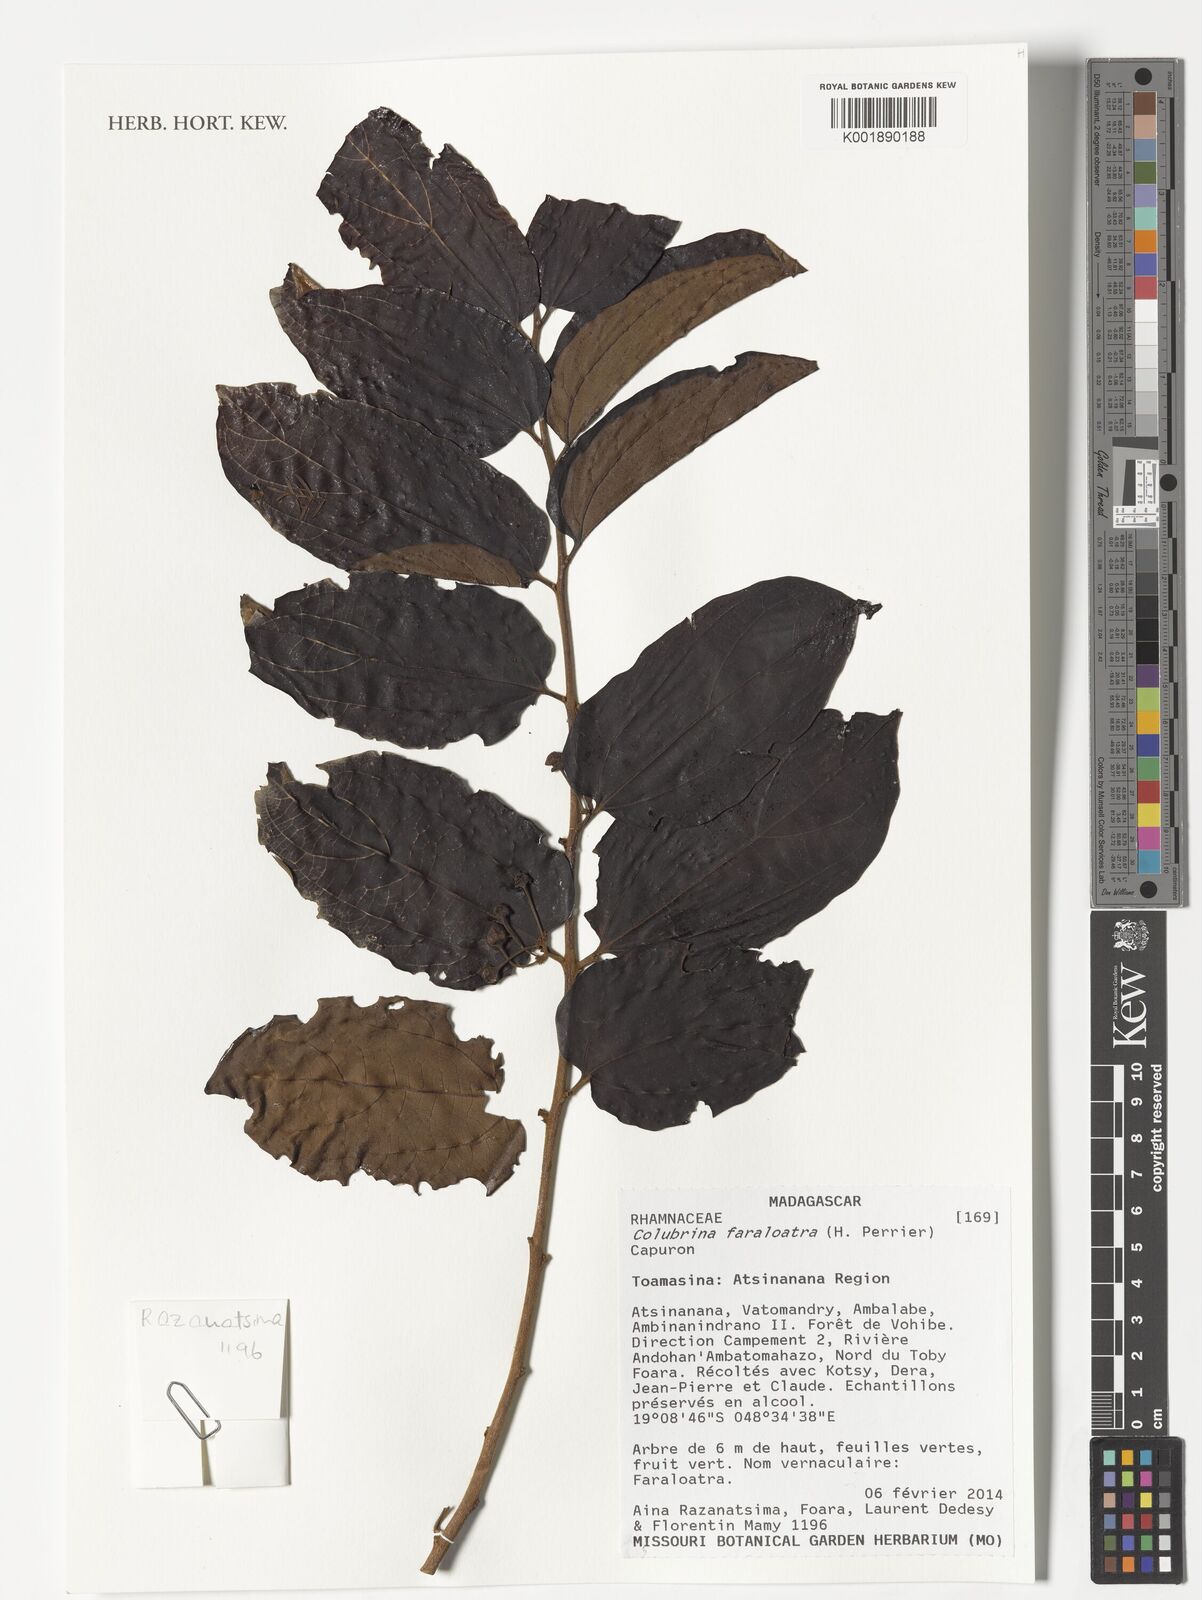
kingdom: Plantae
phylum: Tracheophyta
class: Magnoliopsida
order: Rosales
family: Rhamnaceae
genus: Colubrina
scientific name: Colubrina faralaotra
